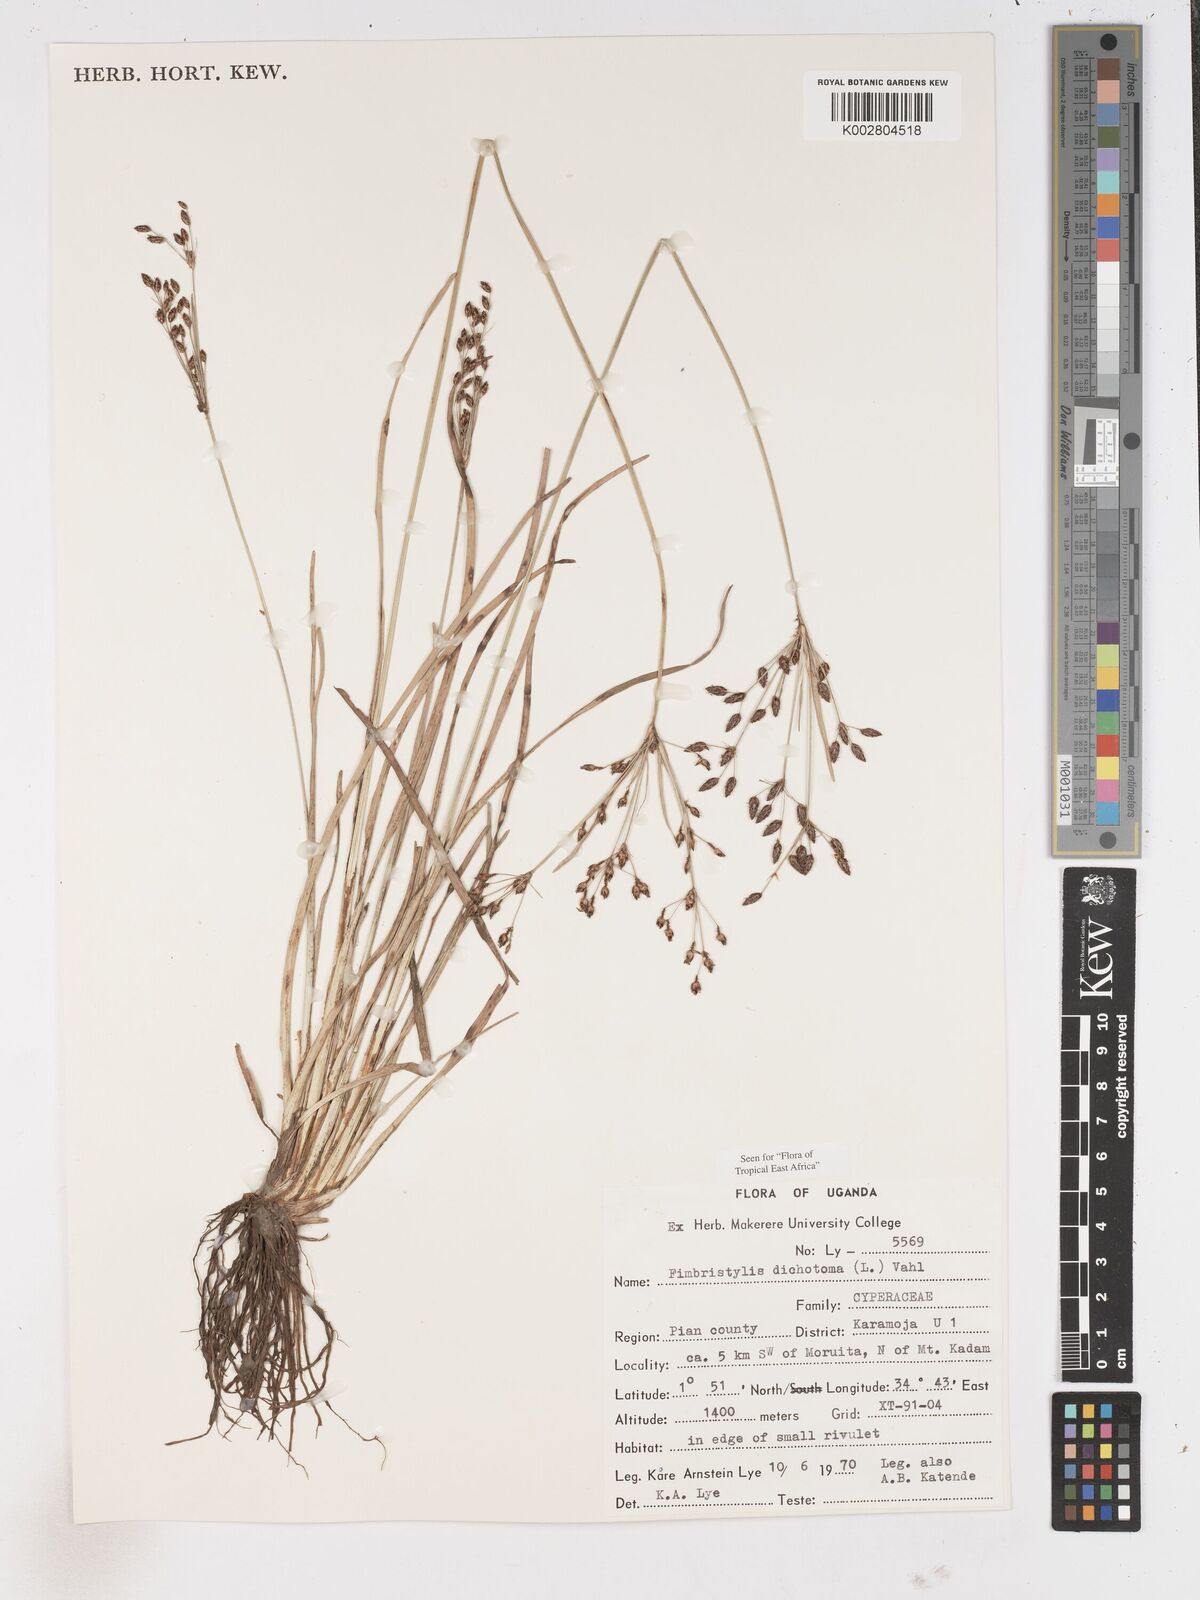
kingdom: Plantae
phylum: Tracheophyta
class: Liliopsida
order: Poales
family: Cyperaceae
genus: Fimbristylis
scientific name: Fimbristylis dichotoma
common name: Forked fimbry
